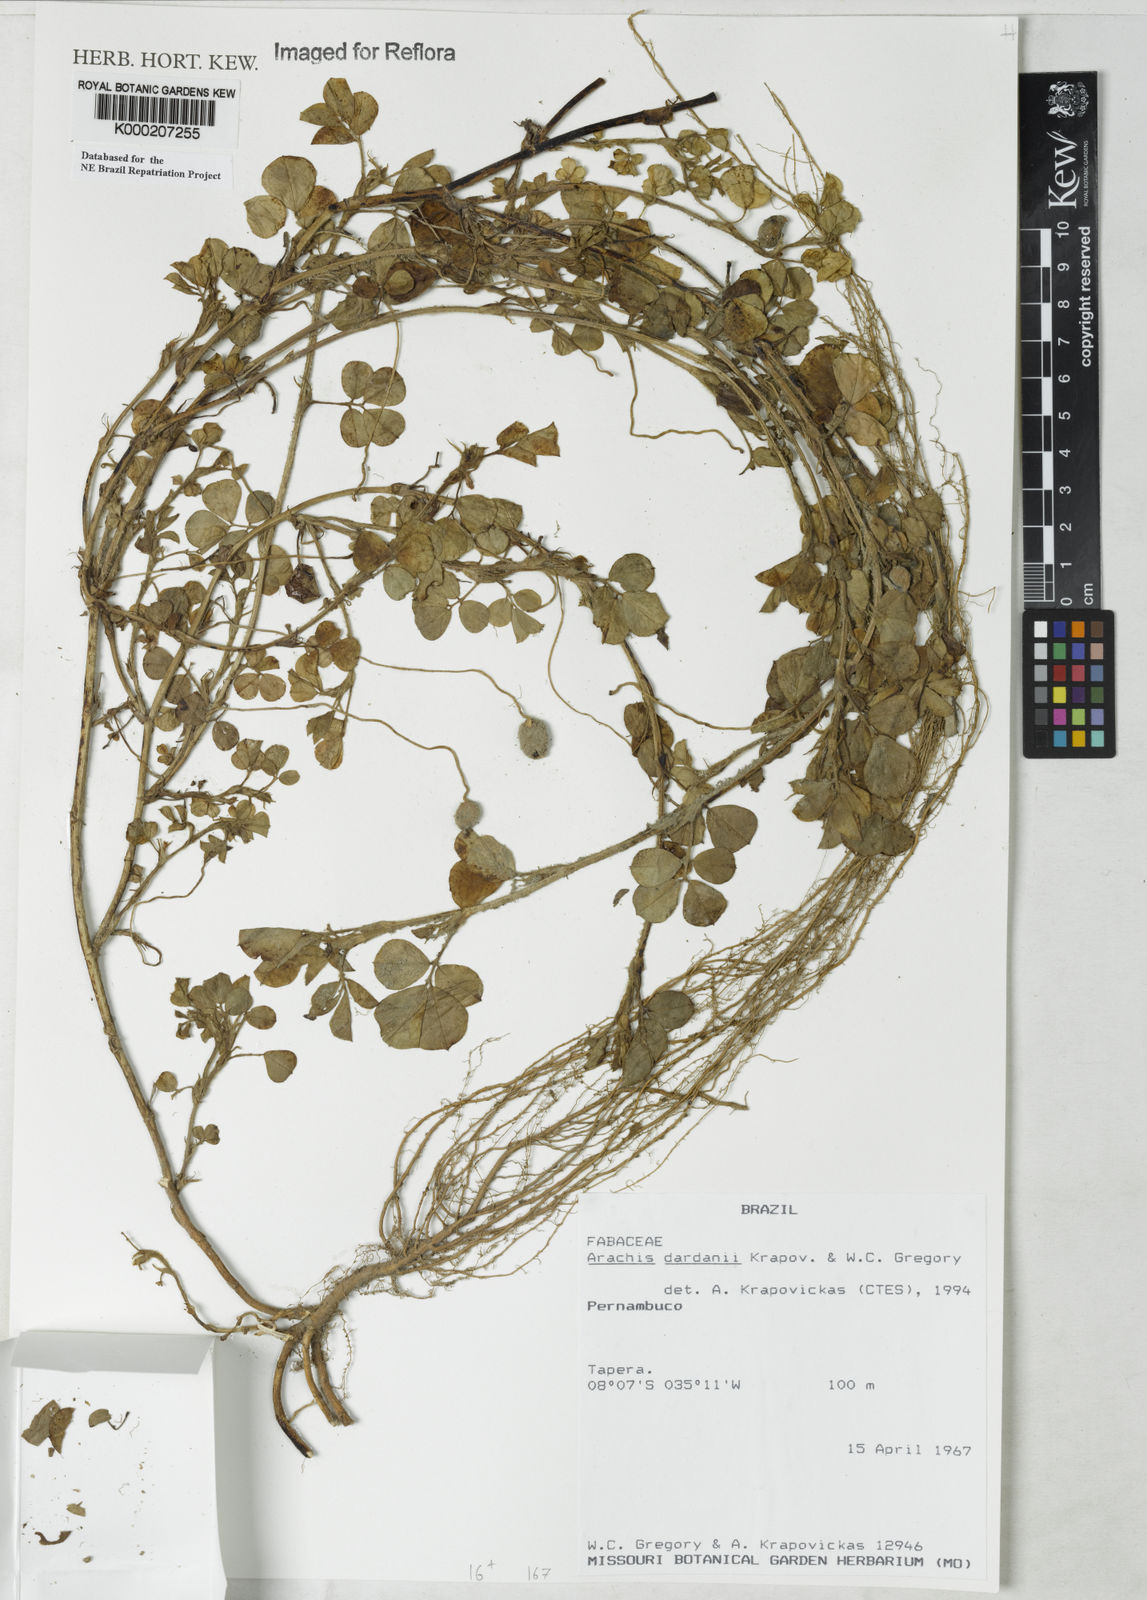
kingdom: Plantae
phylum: Tracheophyta
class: Magnoliopsida
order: Fabales
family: Fabaceae
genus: Arachis
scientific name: Arachis
